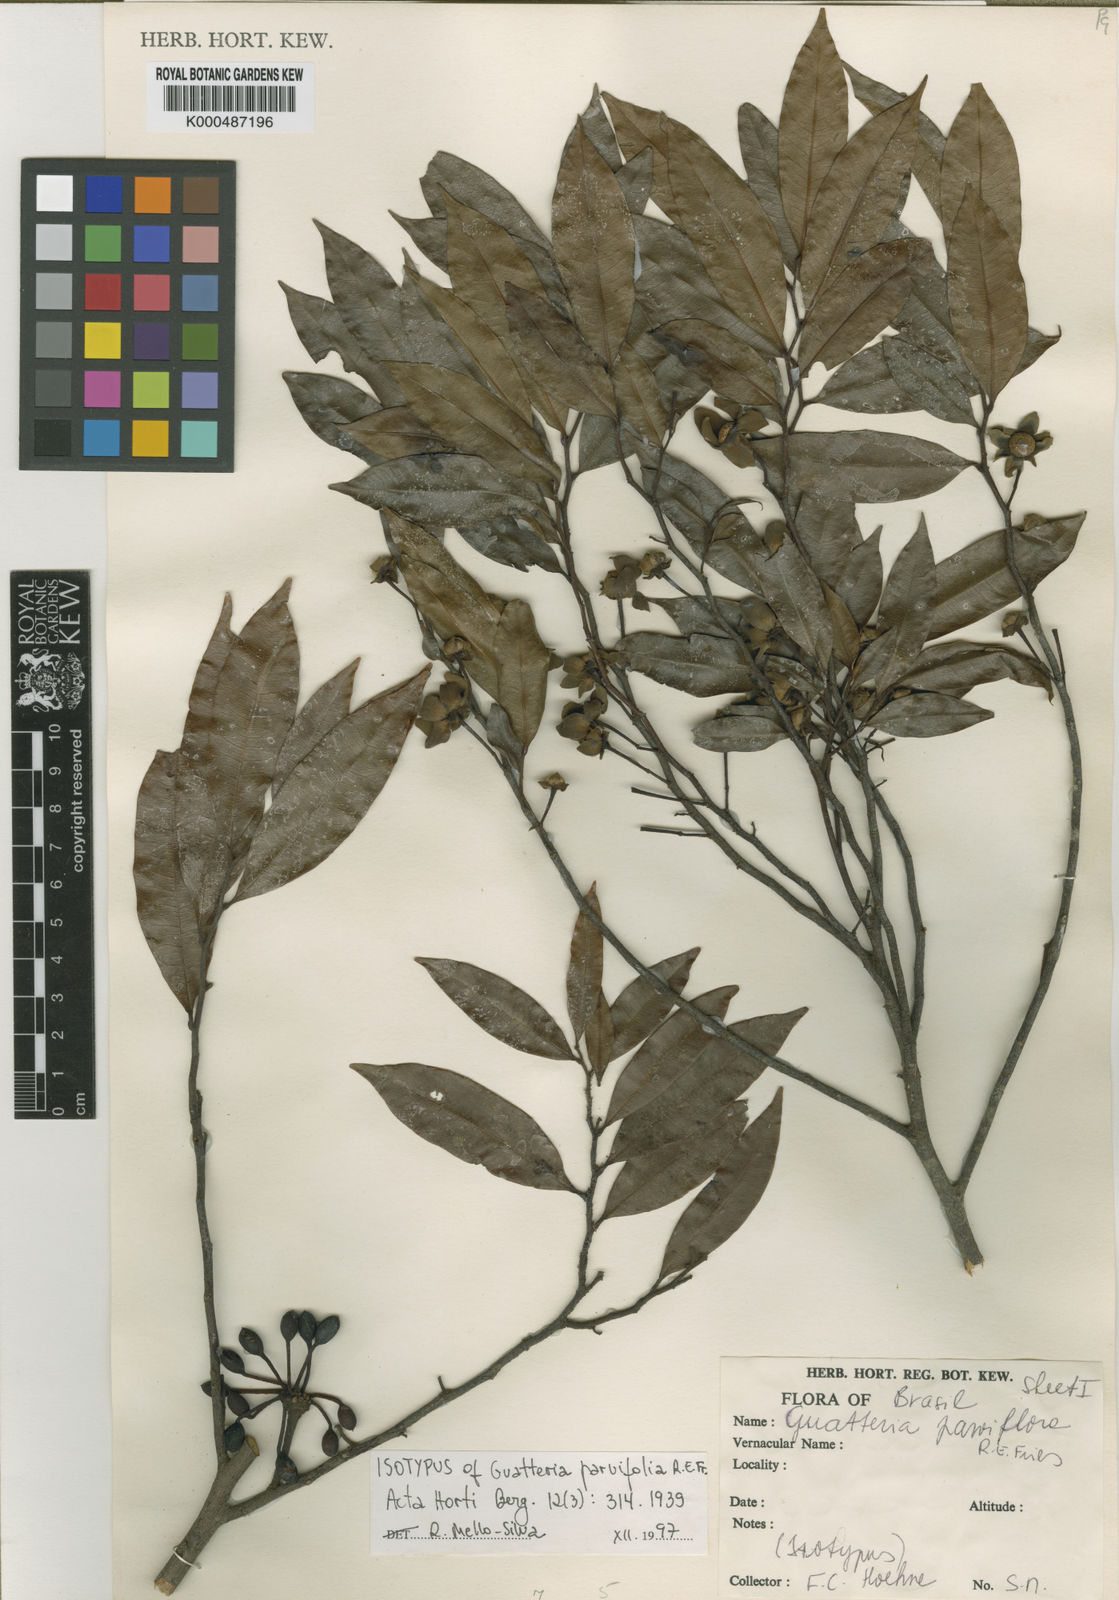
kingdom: Plantae
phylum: Tracheophyta
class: Magnoliopsida
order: Magnoliales
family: Annonaceae
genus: Guatteria
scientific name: Guatteria australis
